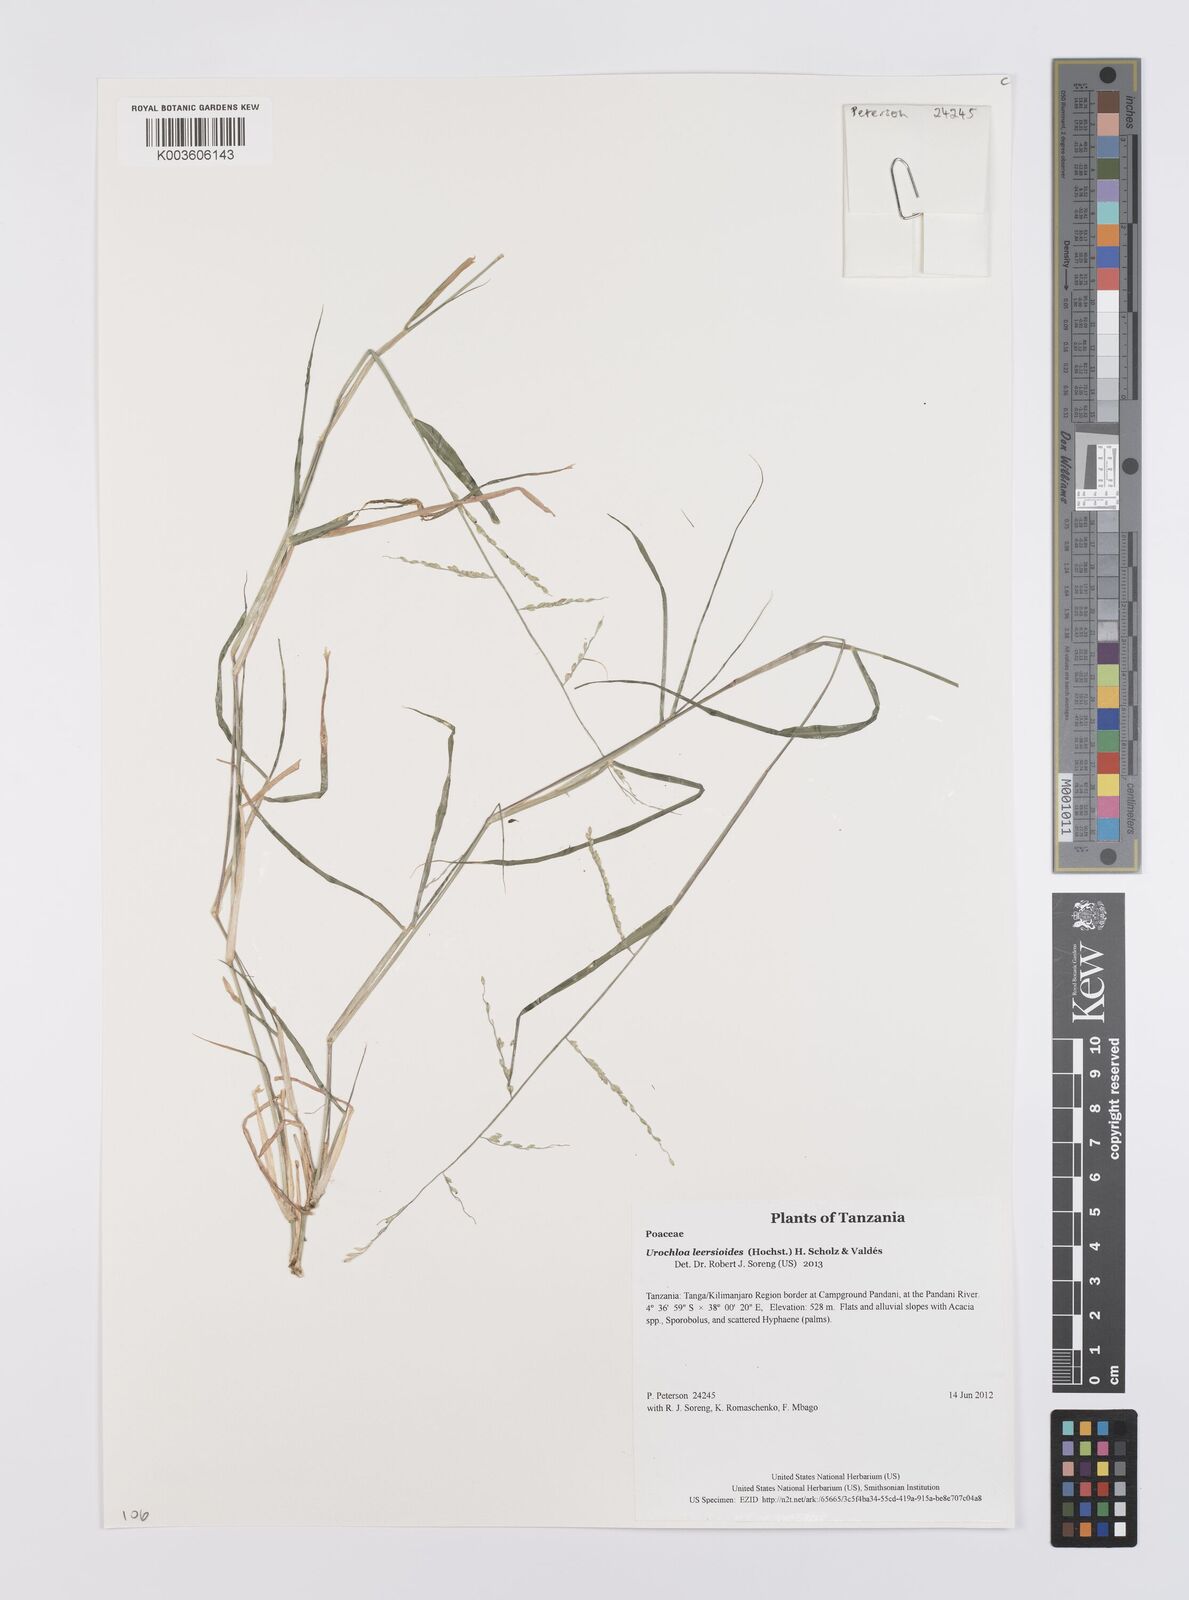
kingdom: Plantae
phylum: Tracheophyta
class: Liliopsida
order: Poales
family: Poaceae
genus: Urochloa
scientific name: Urochloa leersioides
